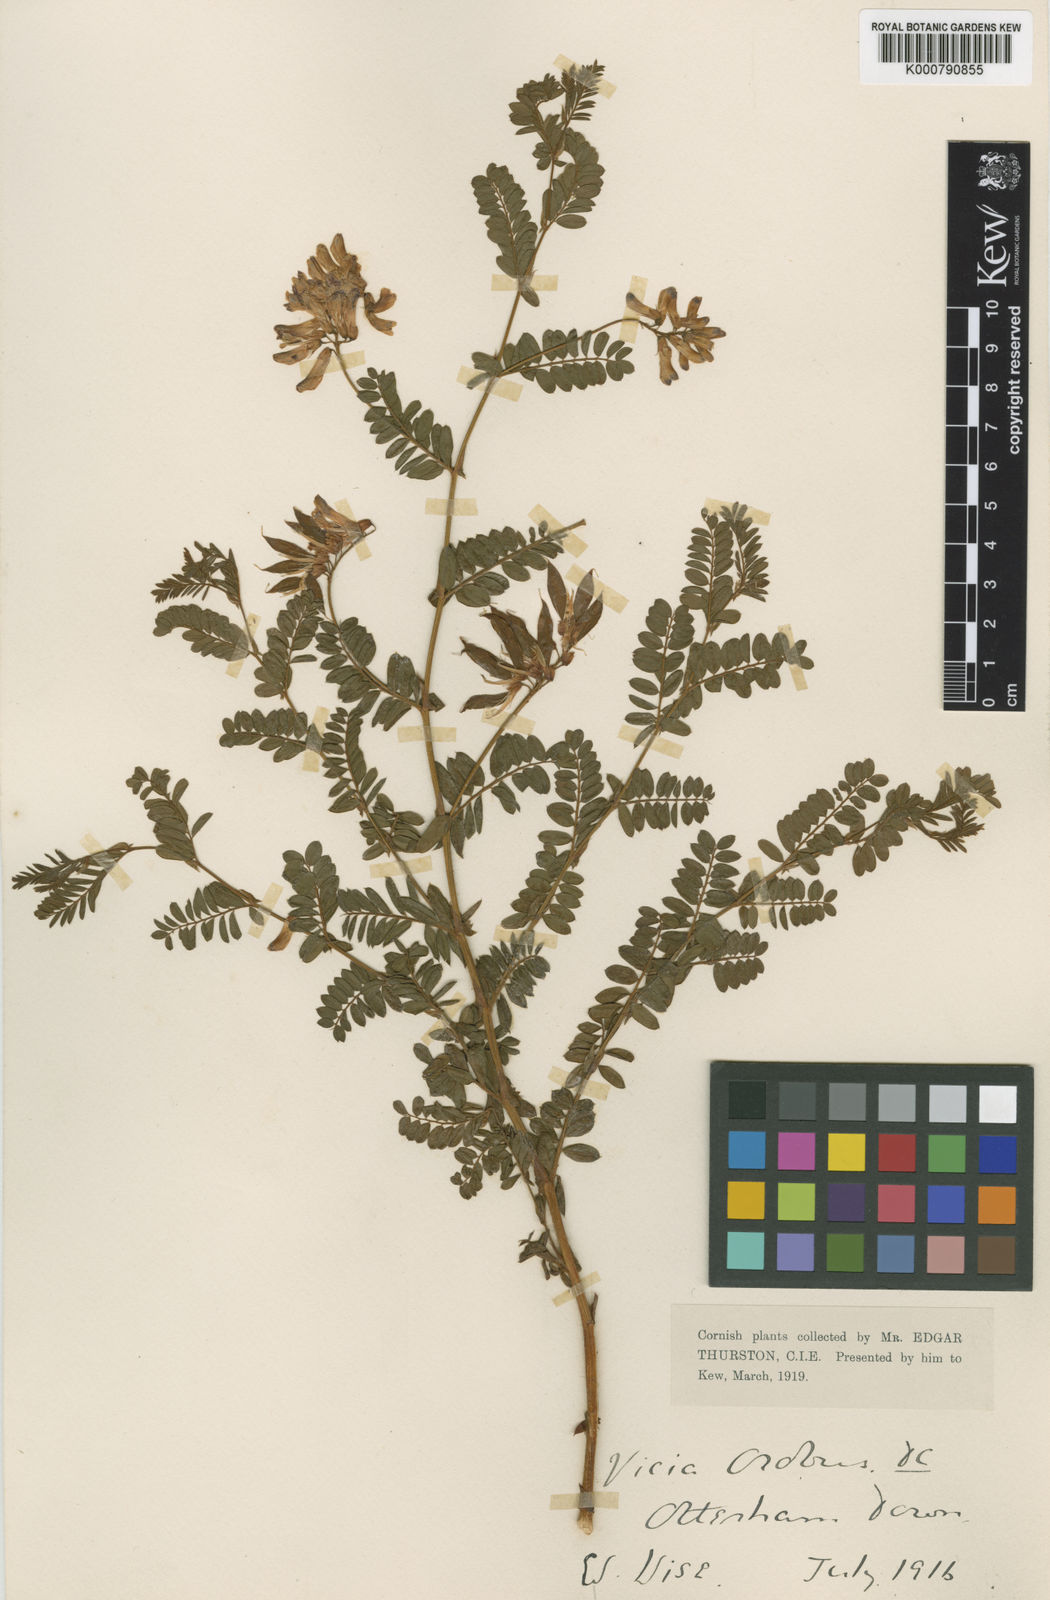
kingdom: Plantae
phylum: Tracheophyta
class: Magnoliopsida
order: Fabales
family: Fabaceae
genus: Vicia
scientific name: Vicia orobus
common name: Wood bitter-vetch
